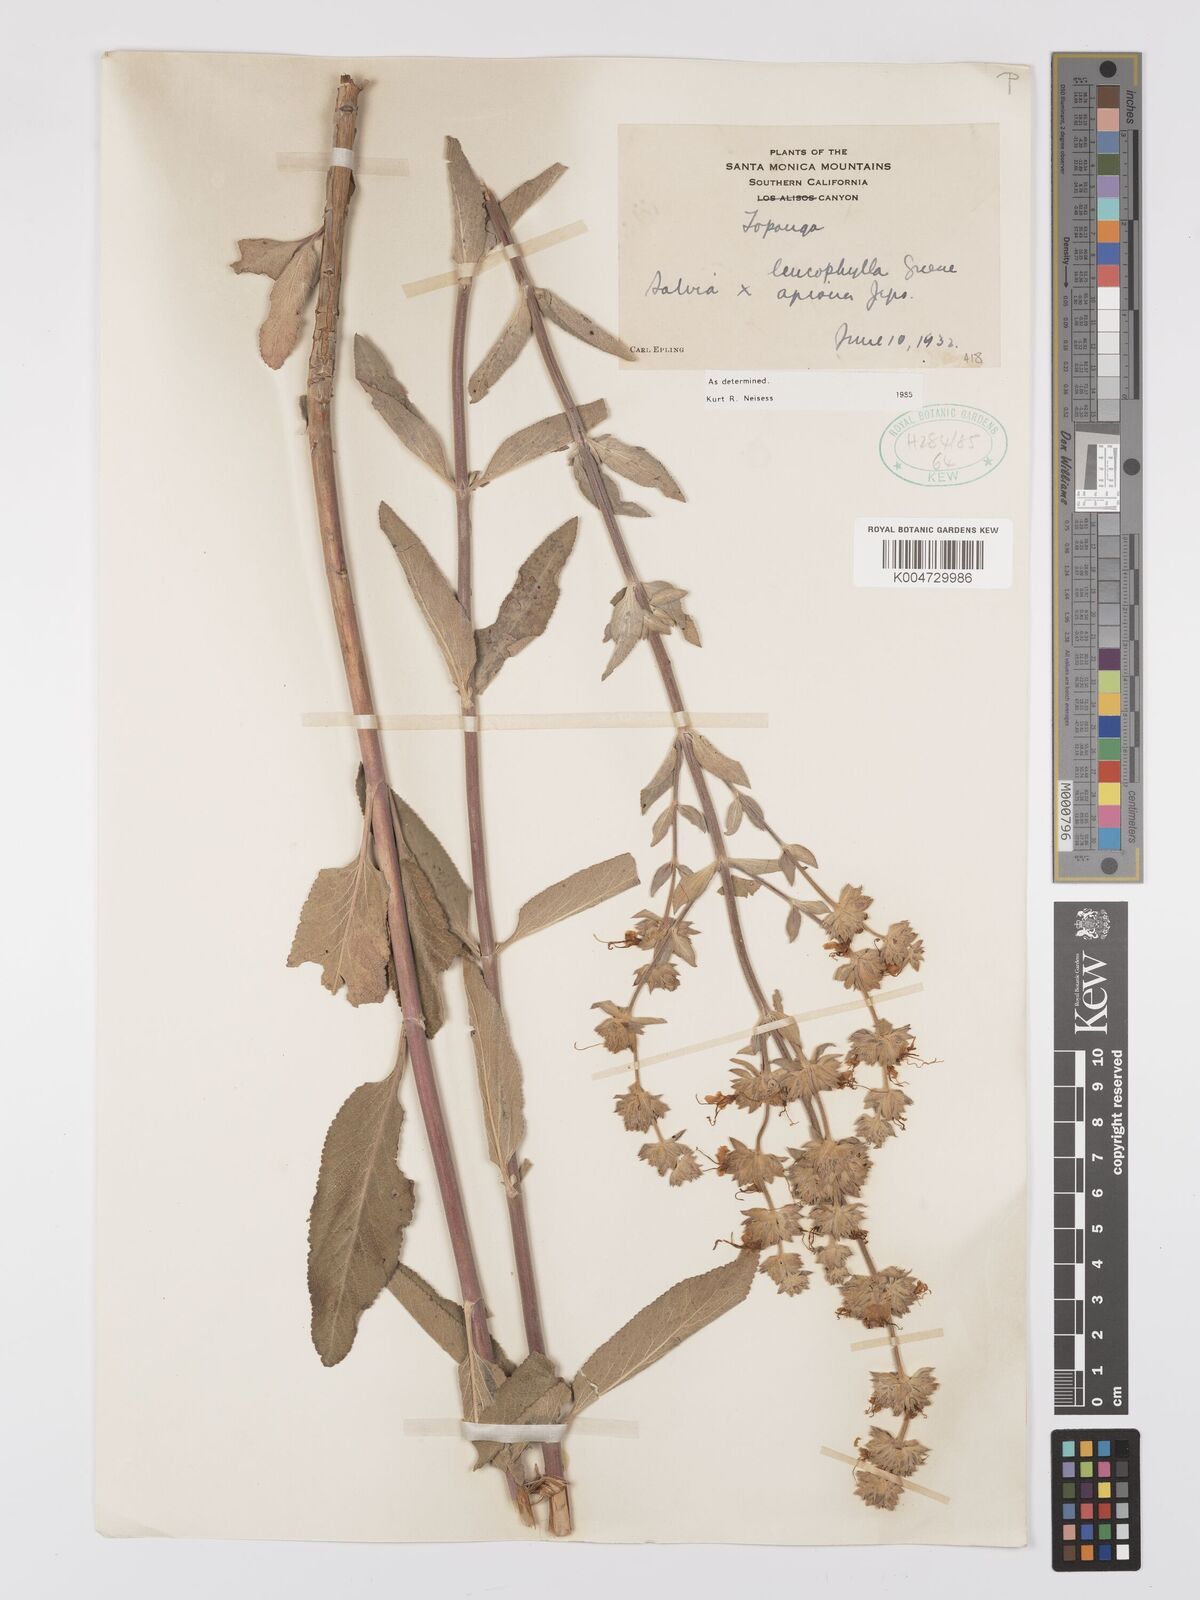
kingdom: Plantae
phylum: Tracheophyta
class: Magnoliopsida
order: Lamiales
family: Lamiaceae
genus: Salvia
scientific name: Salvia apiana
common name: White sage
